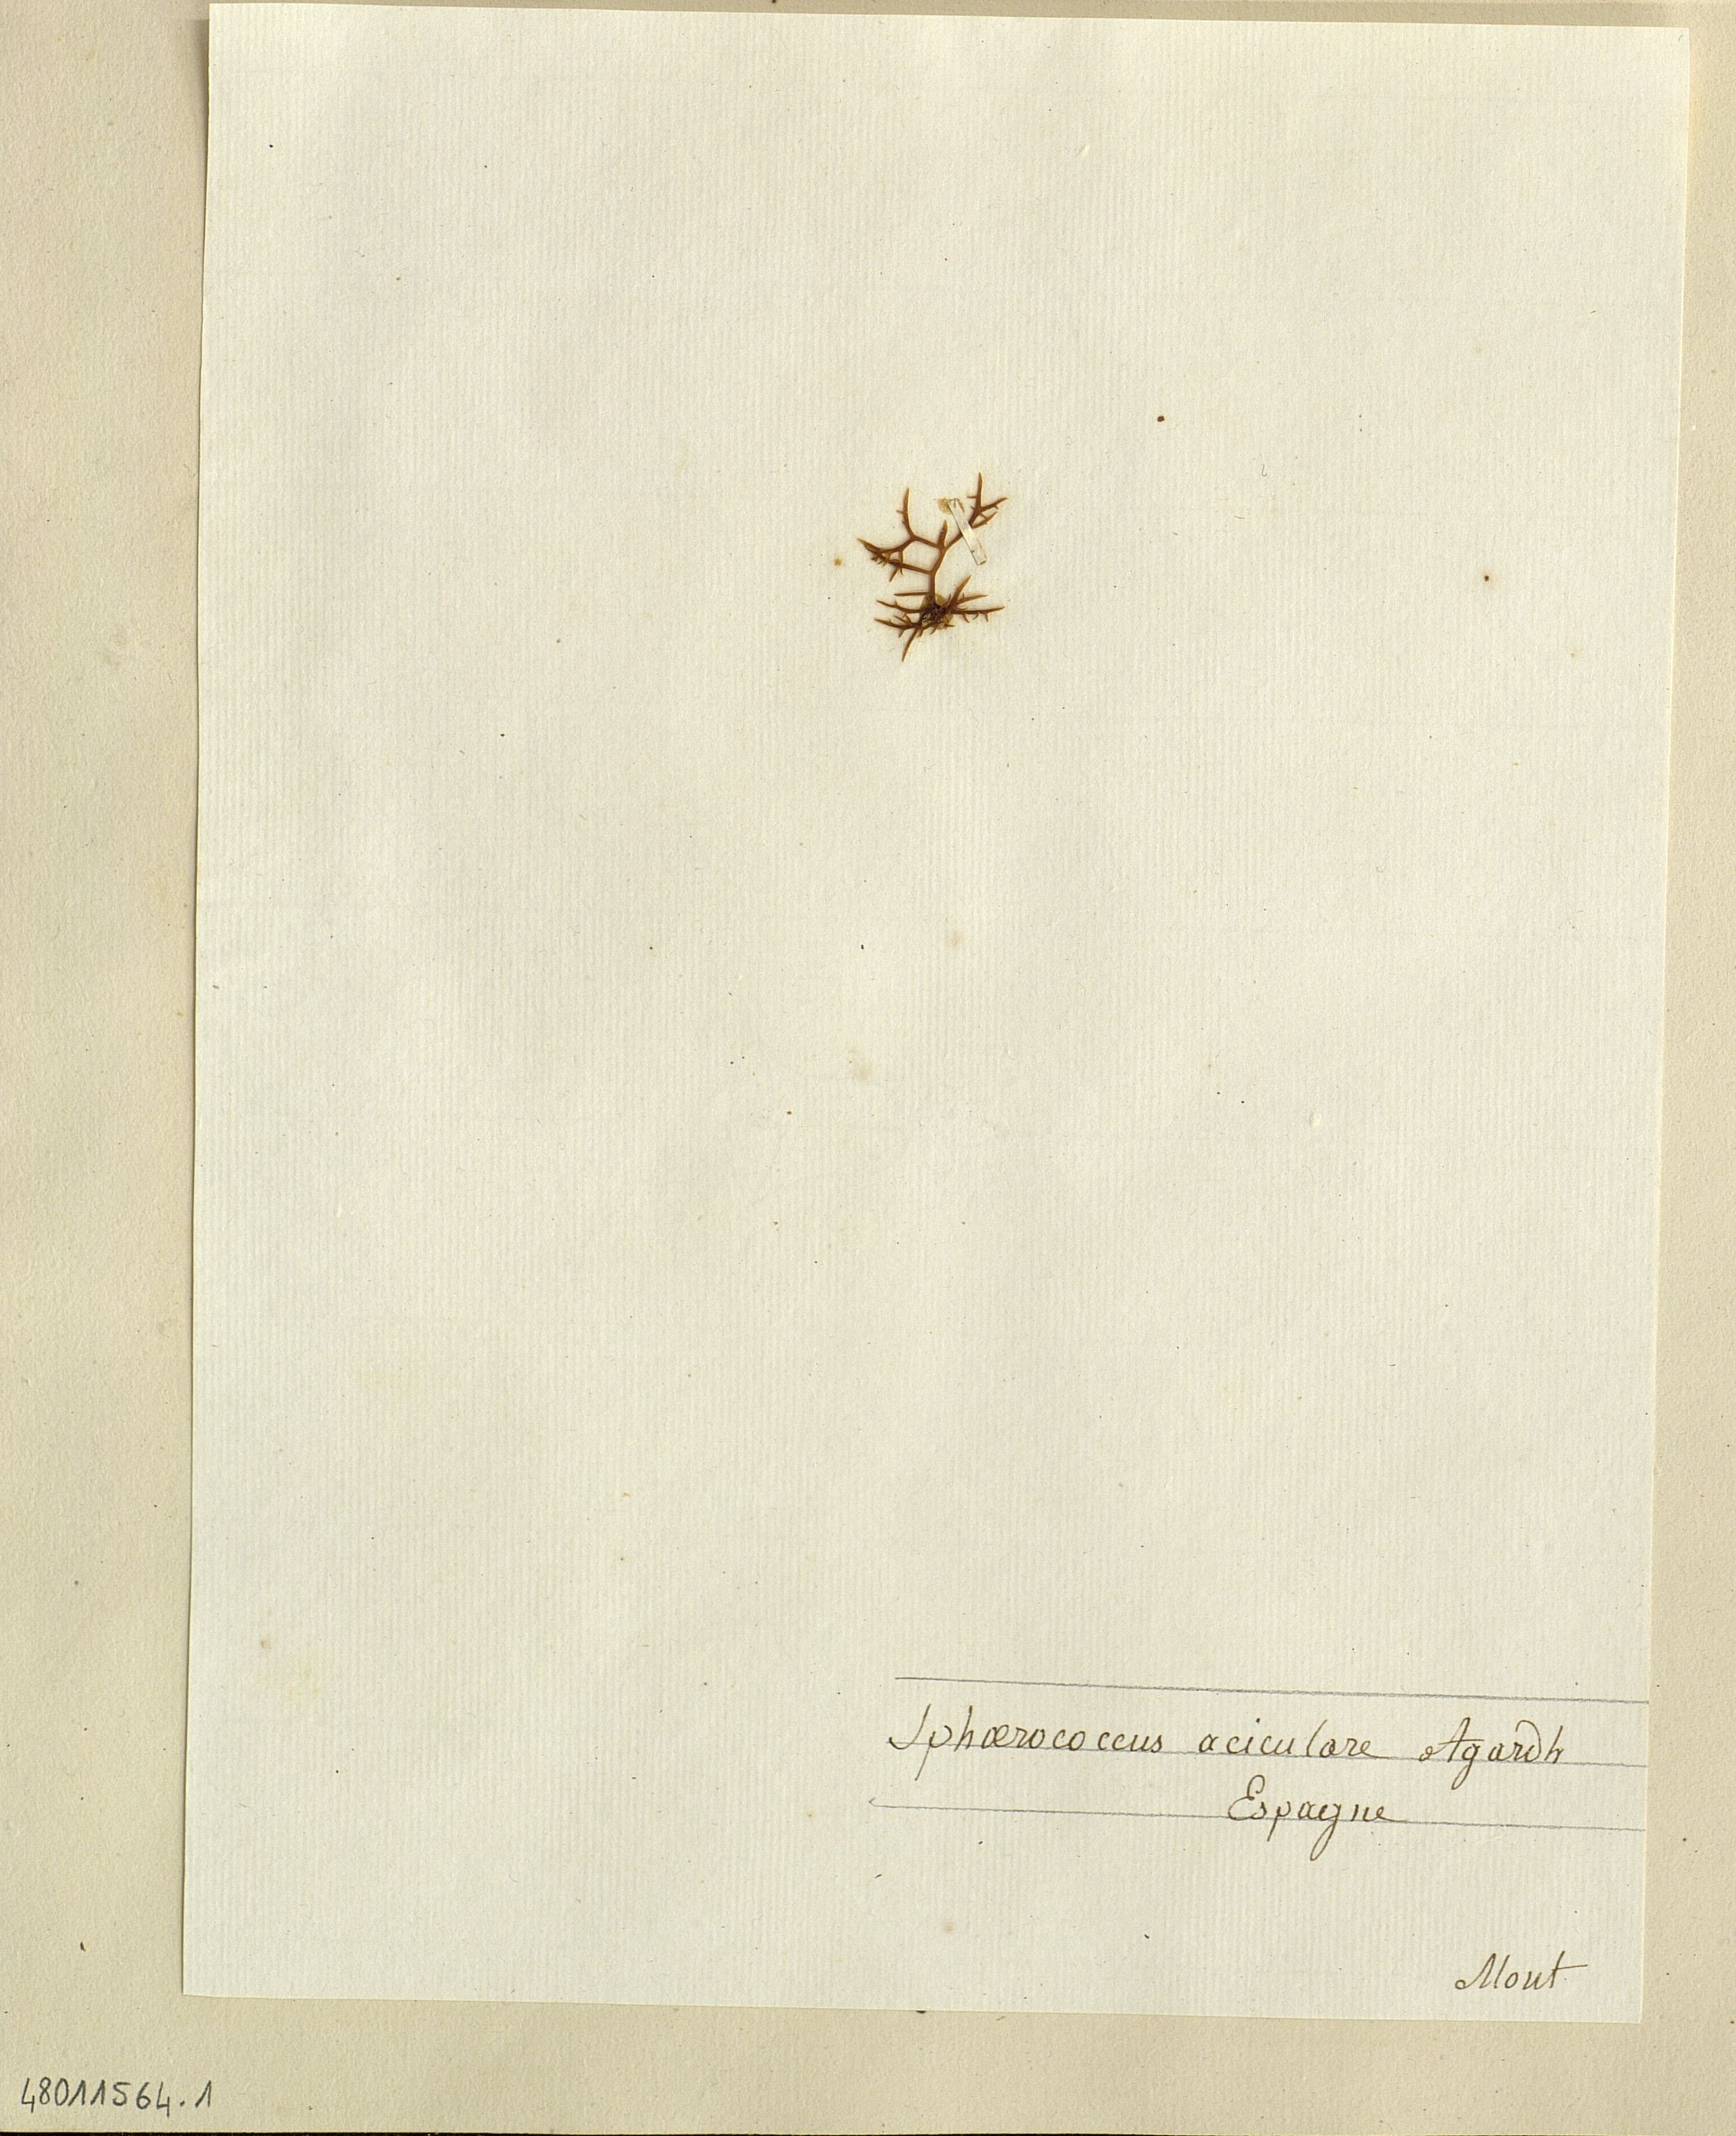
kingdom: Plantae
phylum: Rhodophyta
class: Florideophyceae
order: Gigartinales
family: Gigartinaceae
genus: Chondracanthus
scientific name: Chondracanthus acicularis
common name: Creephorn
